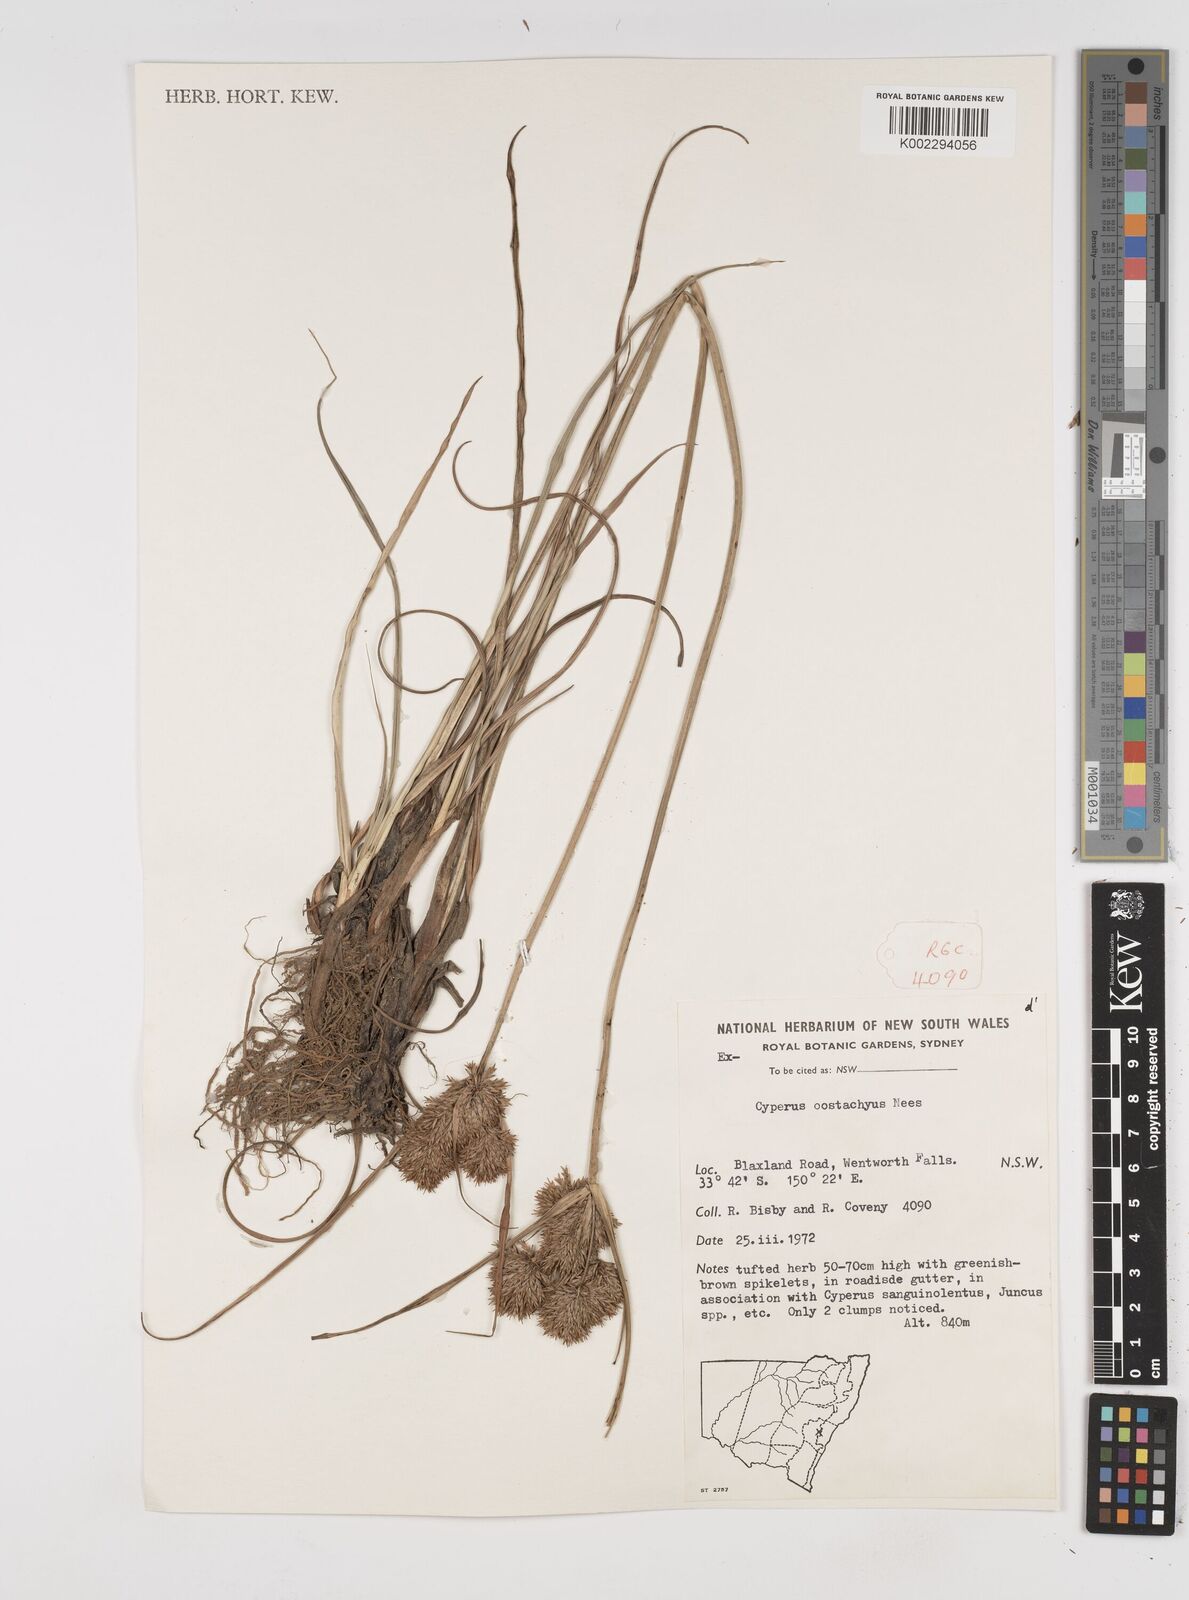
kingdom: Plantae
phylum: Tracheophyta
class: Liliopsida
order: Poales
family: Cyperaceae
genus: Cyperus
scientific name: Cyperus rigens
